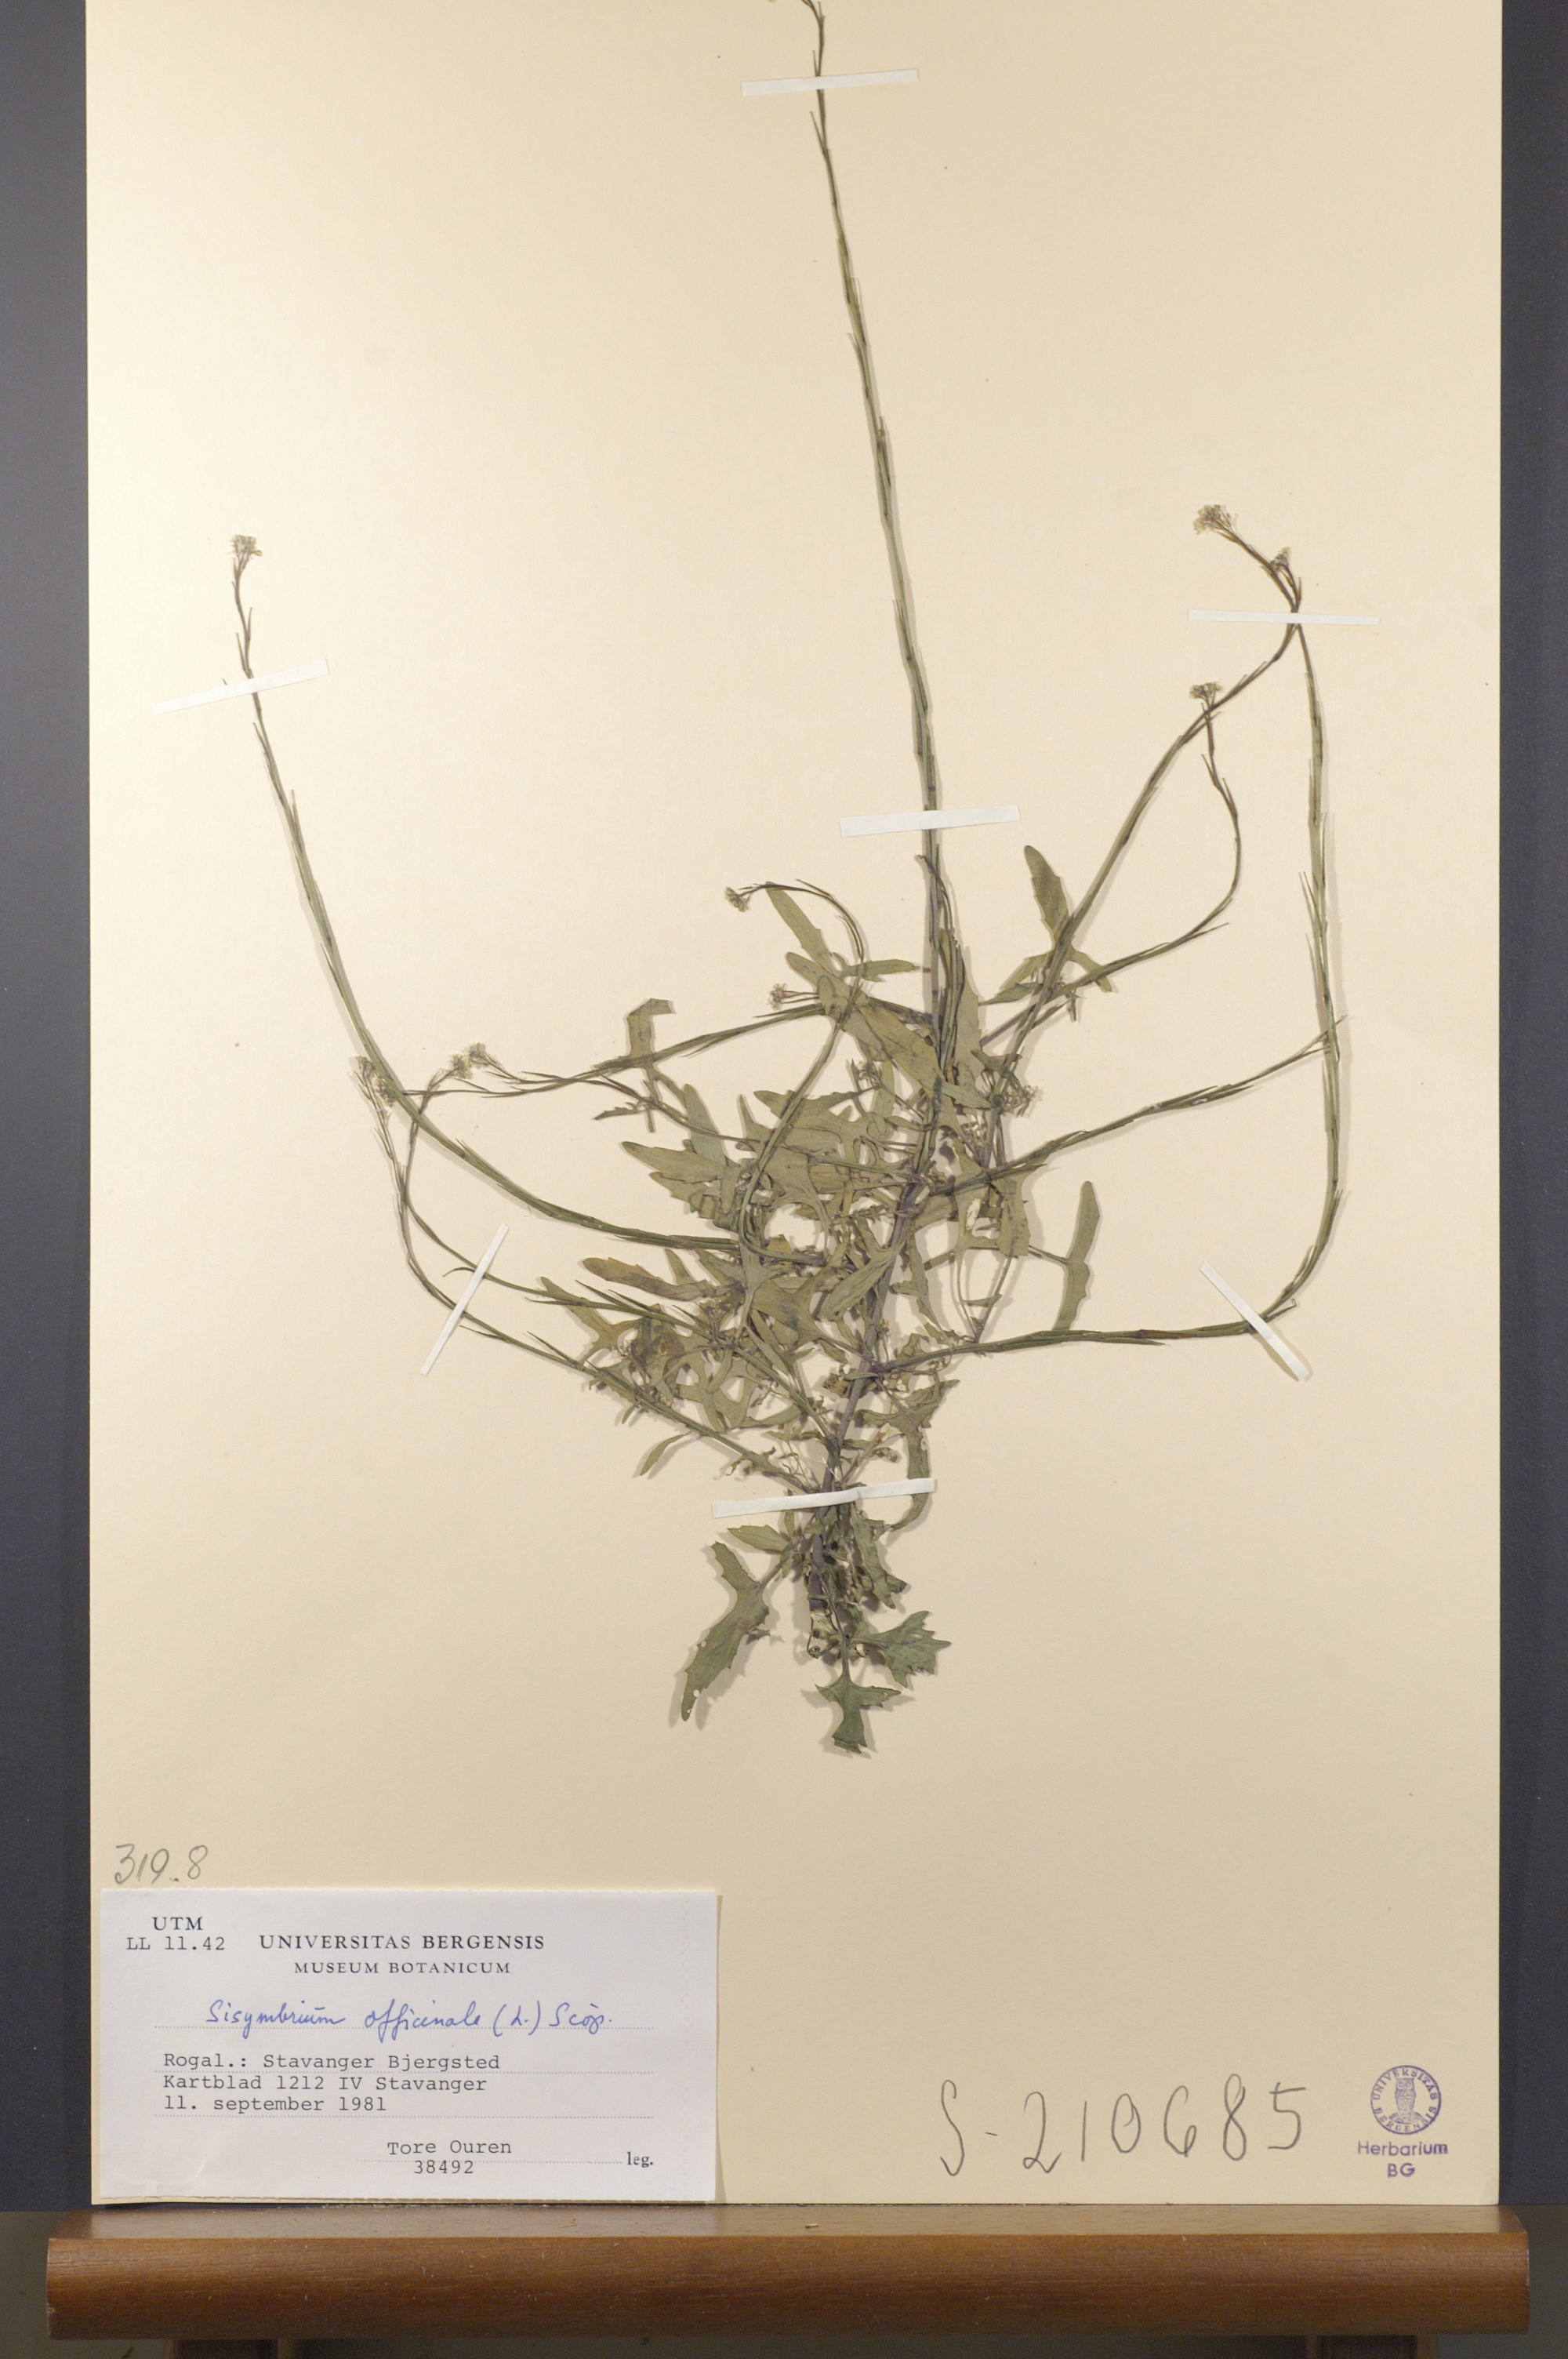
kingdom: Plantae
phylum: Tracheophyta
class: Magnoliopsida
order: Brassicales
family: Brassicaceae
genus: Sisymbrium
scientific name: Sisymbrium officinale
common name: Hedge mustard
